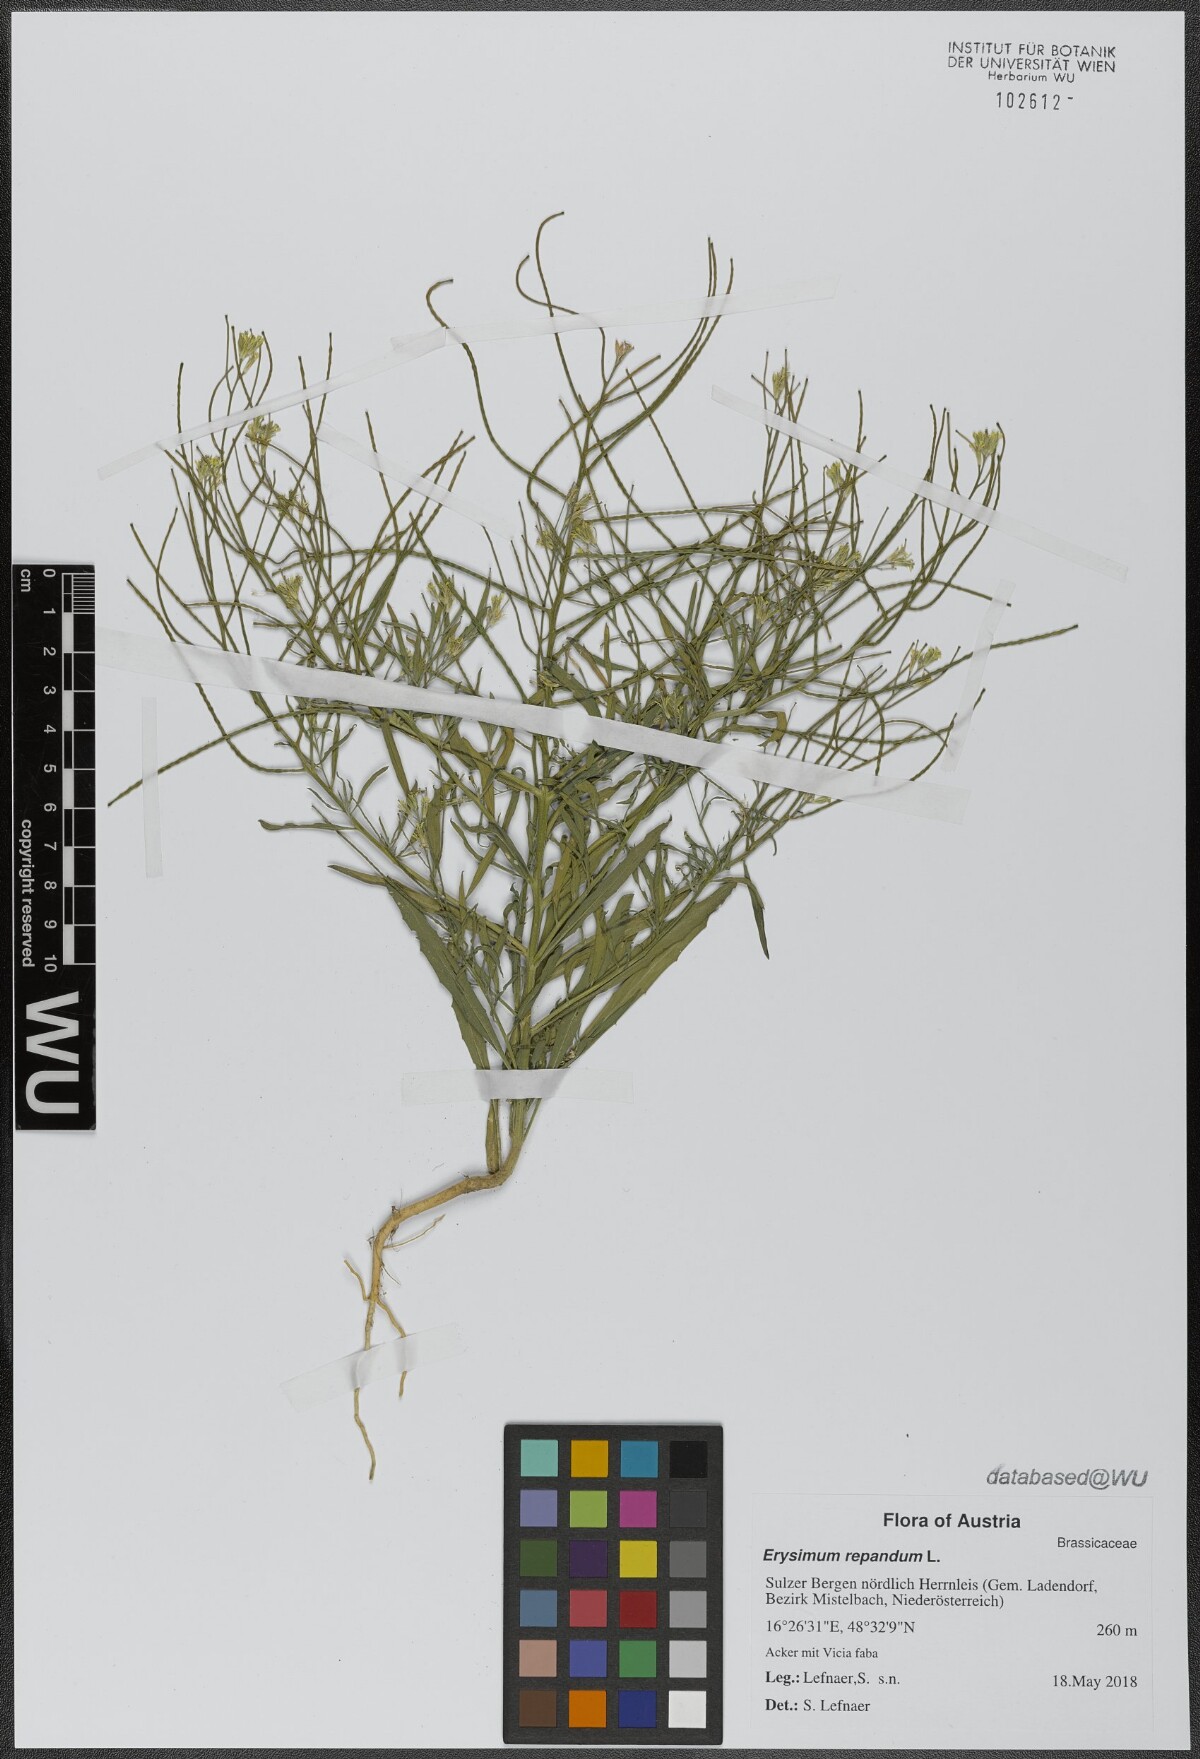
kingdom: Plantae
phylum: Tracheophyta
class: Magnoliopsida
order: Brassicales
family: Brassicaceae
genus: Erysimum
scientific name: Erysimum repandum
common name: Spreading wallflower
